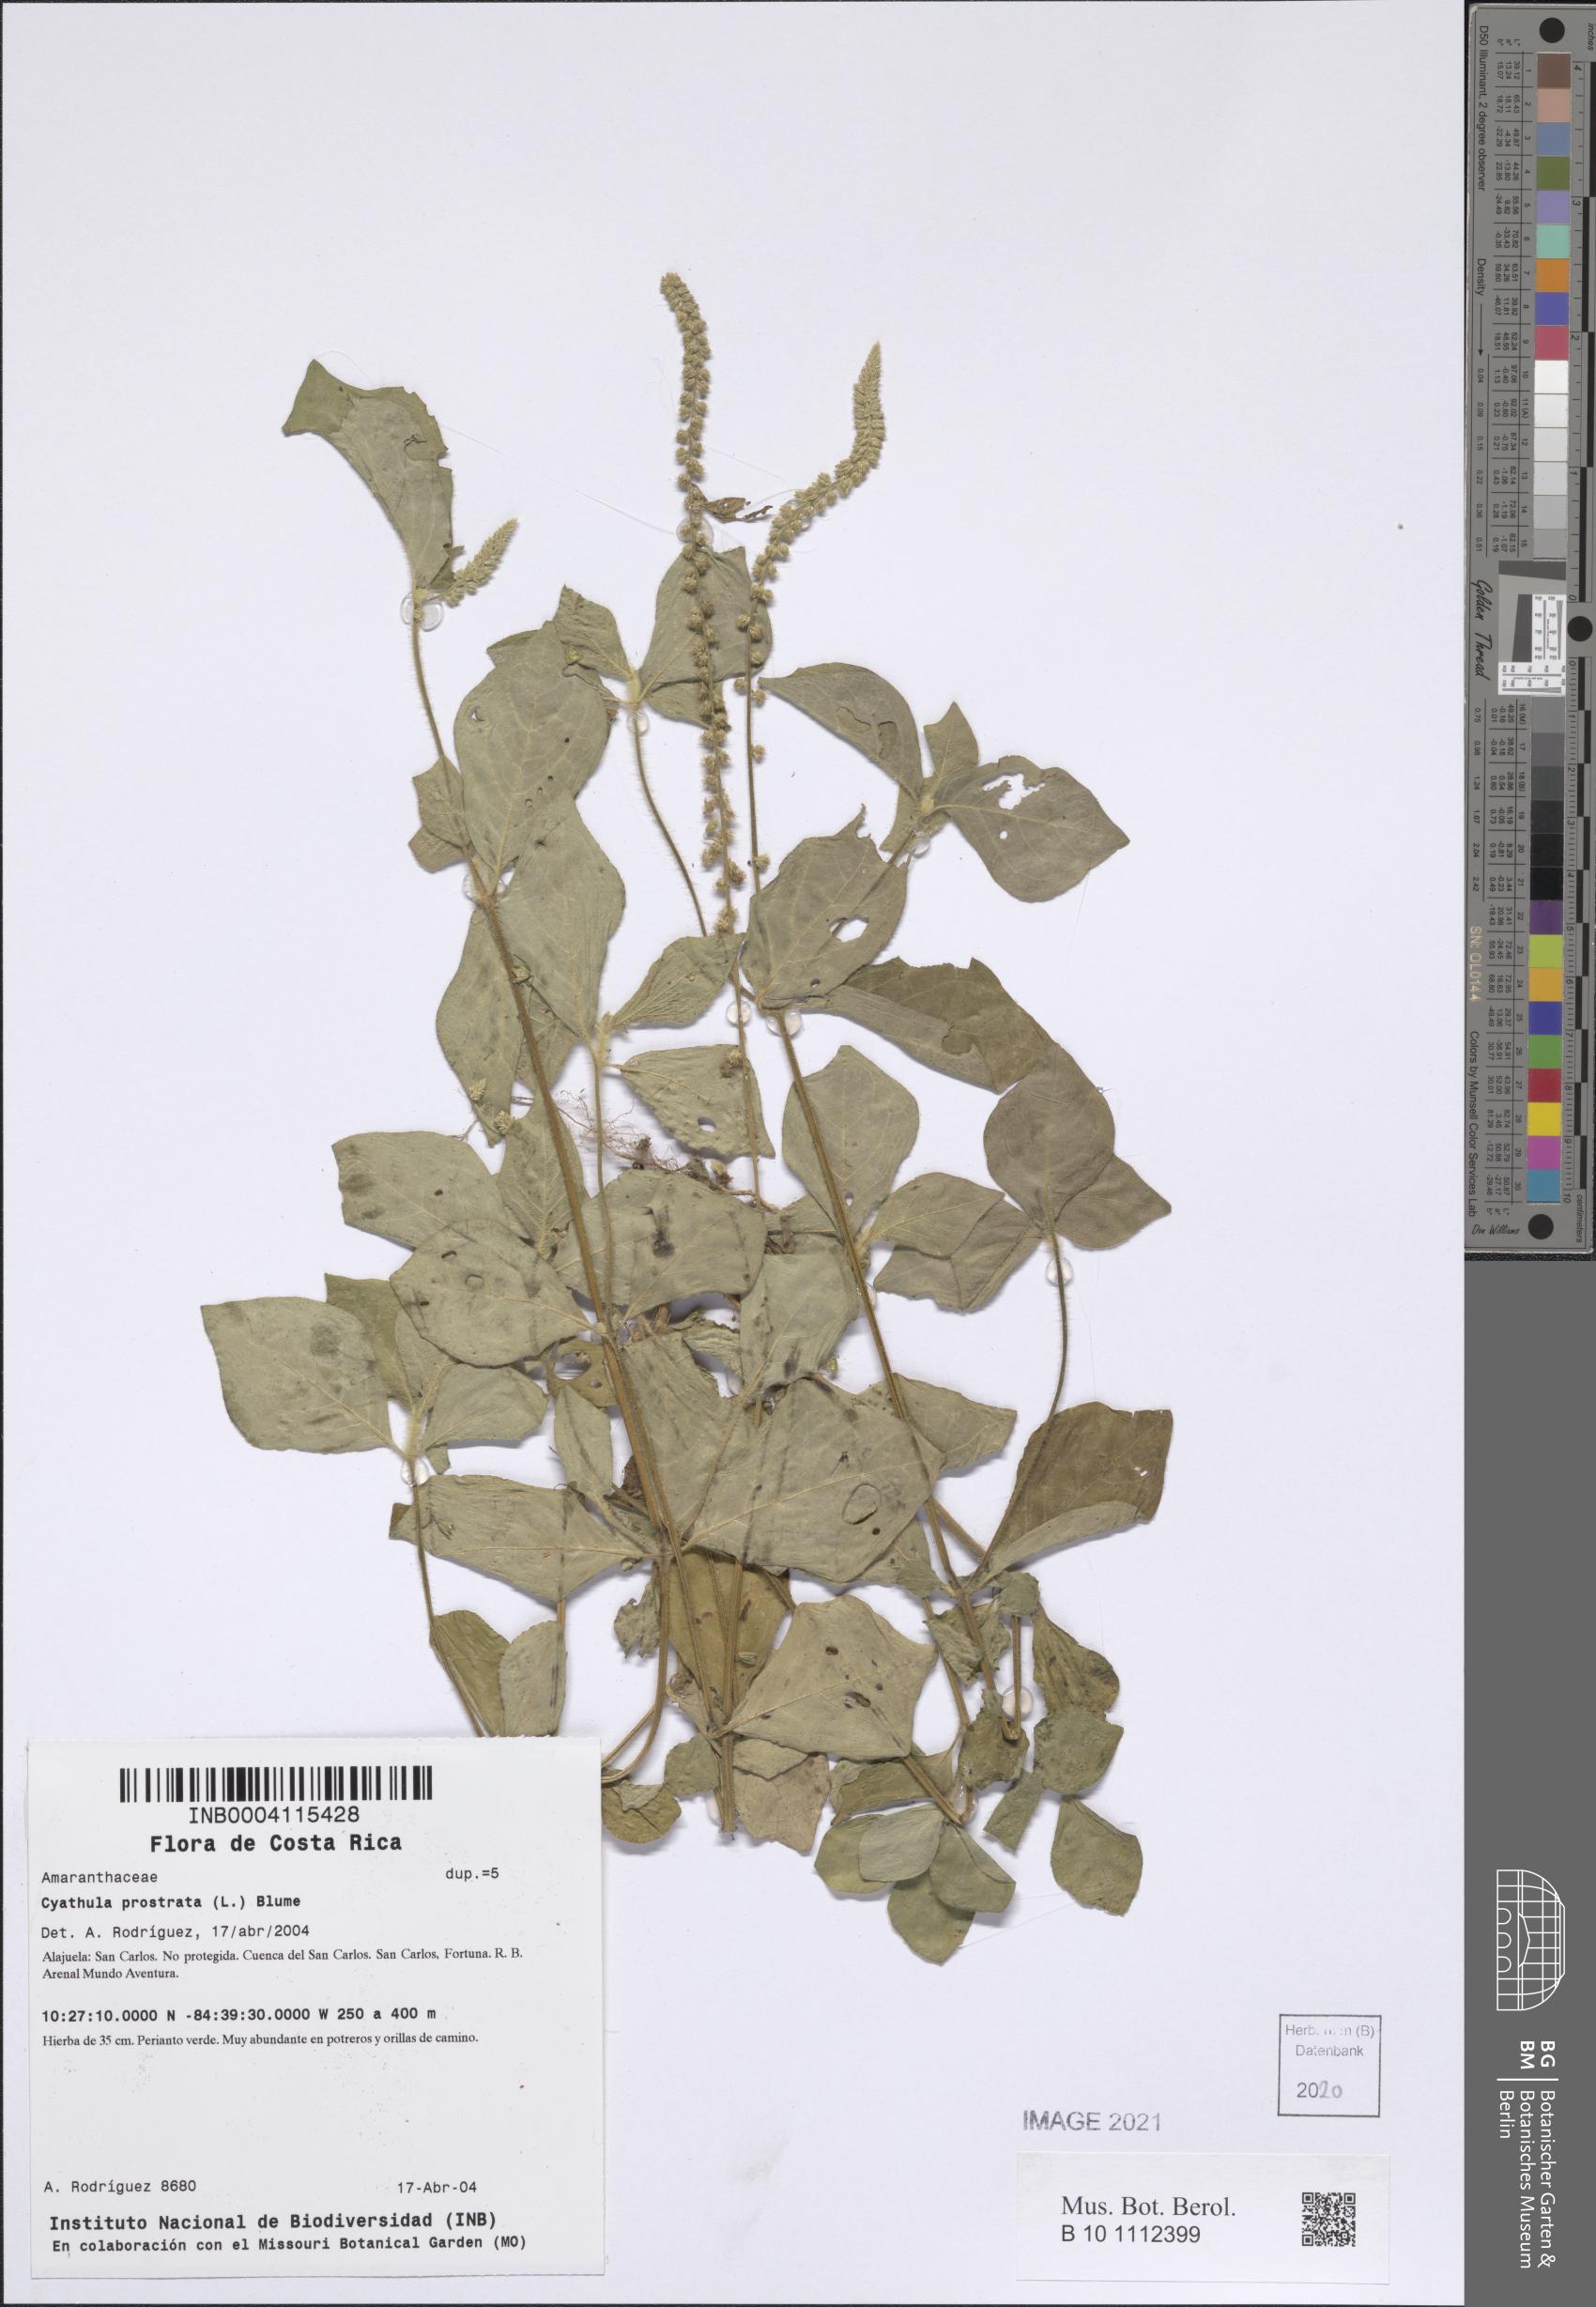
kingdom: Plantae
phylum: Tracheophyta
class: Magnoliopsida
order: Caryophyllales
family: Amaranthaceae
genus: Cyathula
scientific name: Cyathula prostrata
